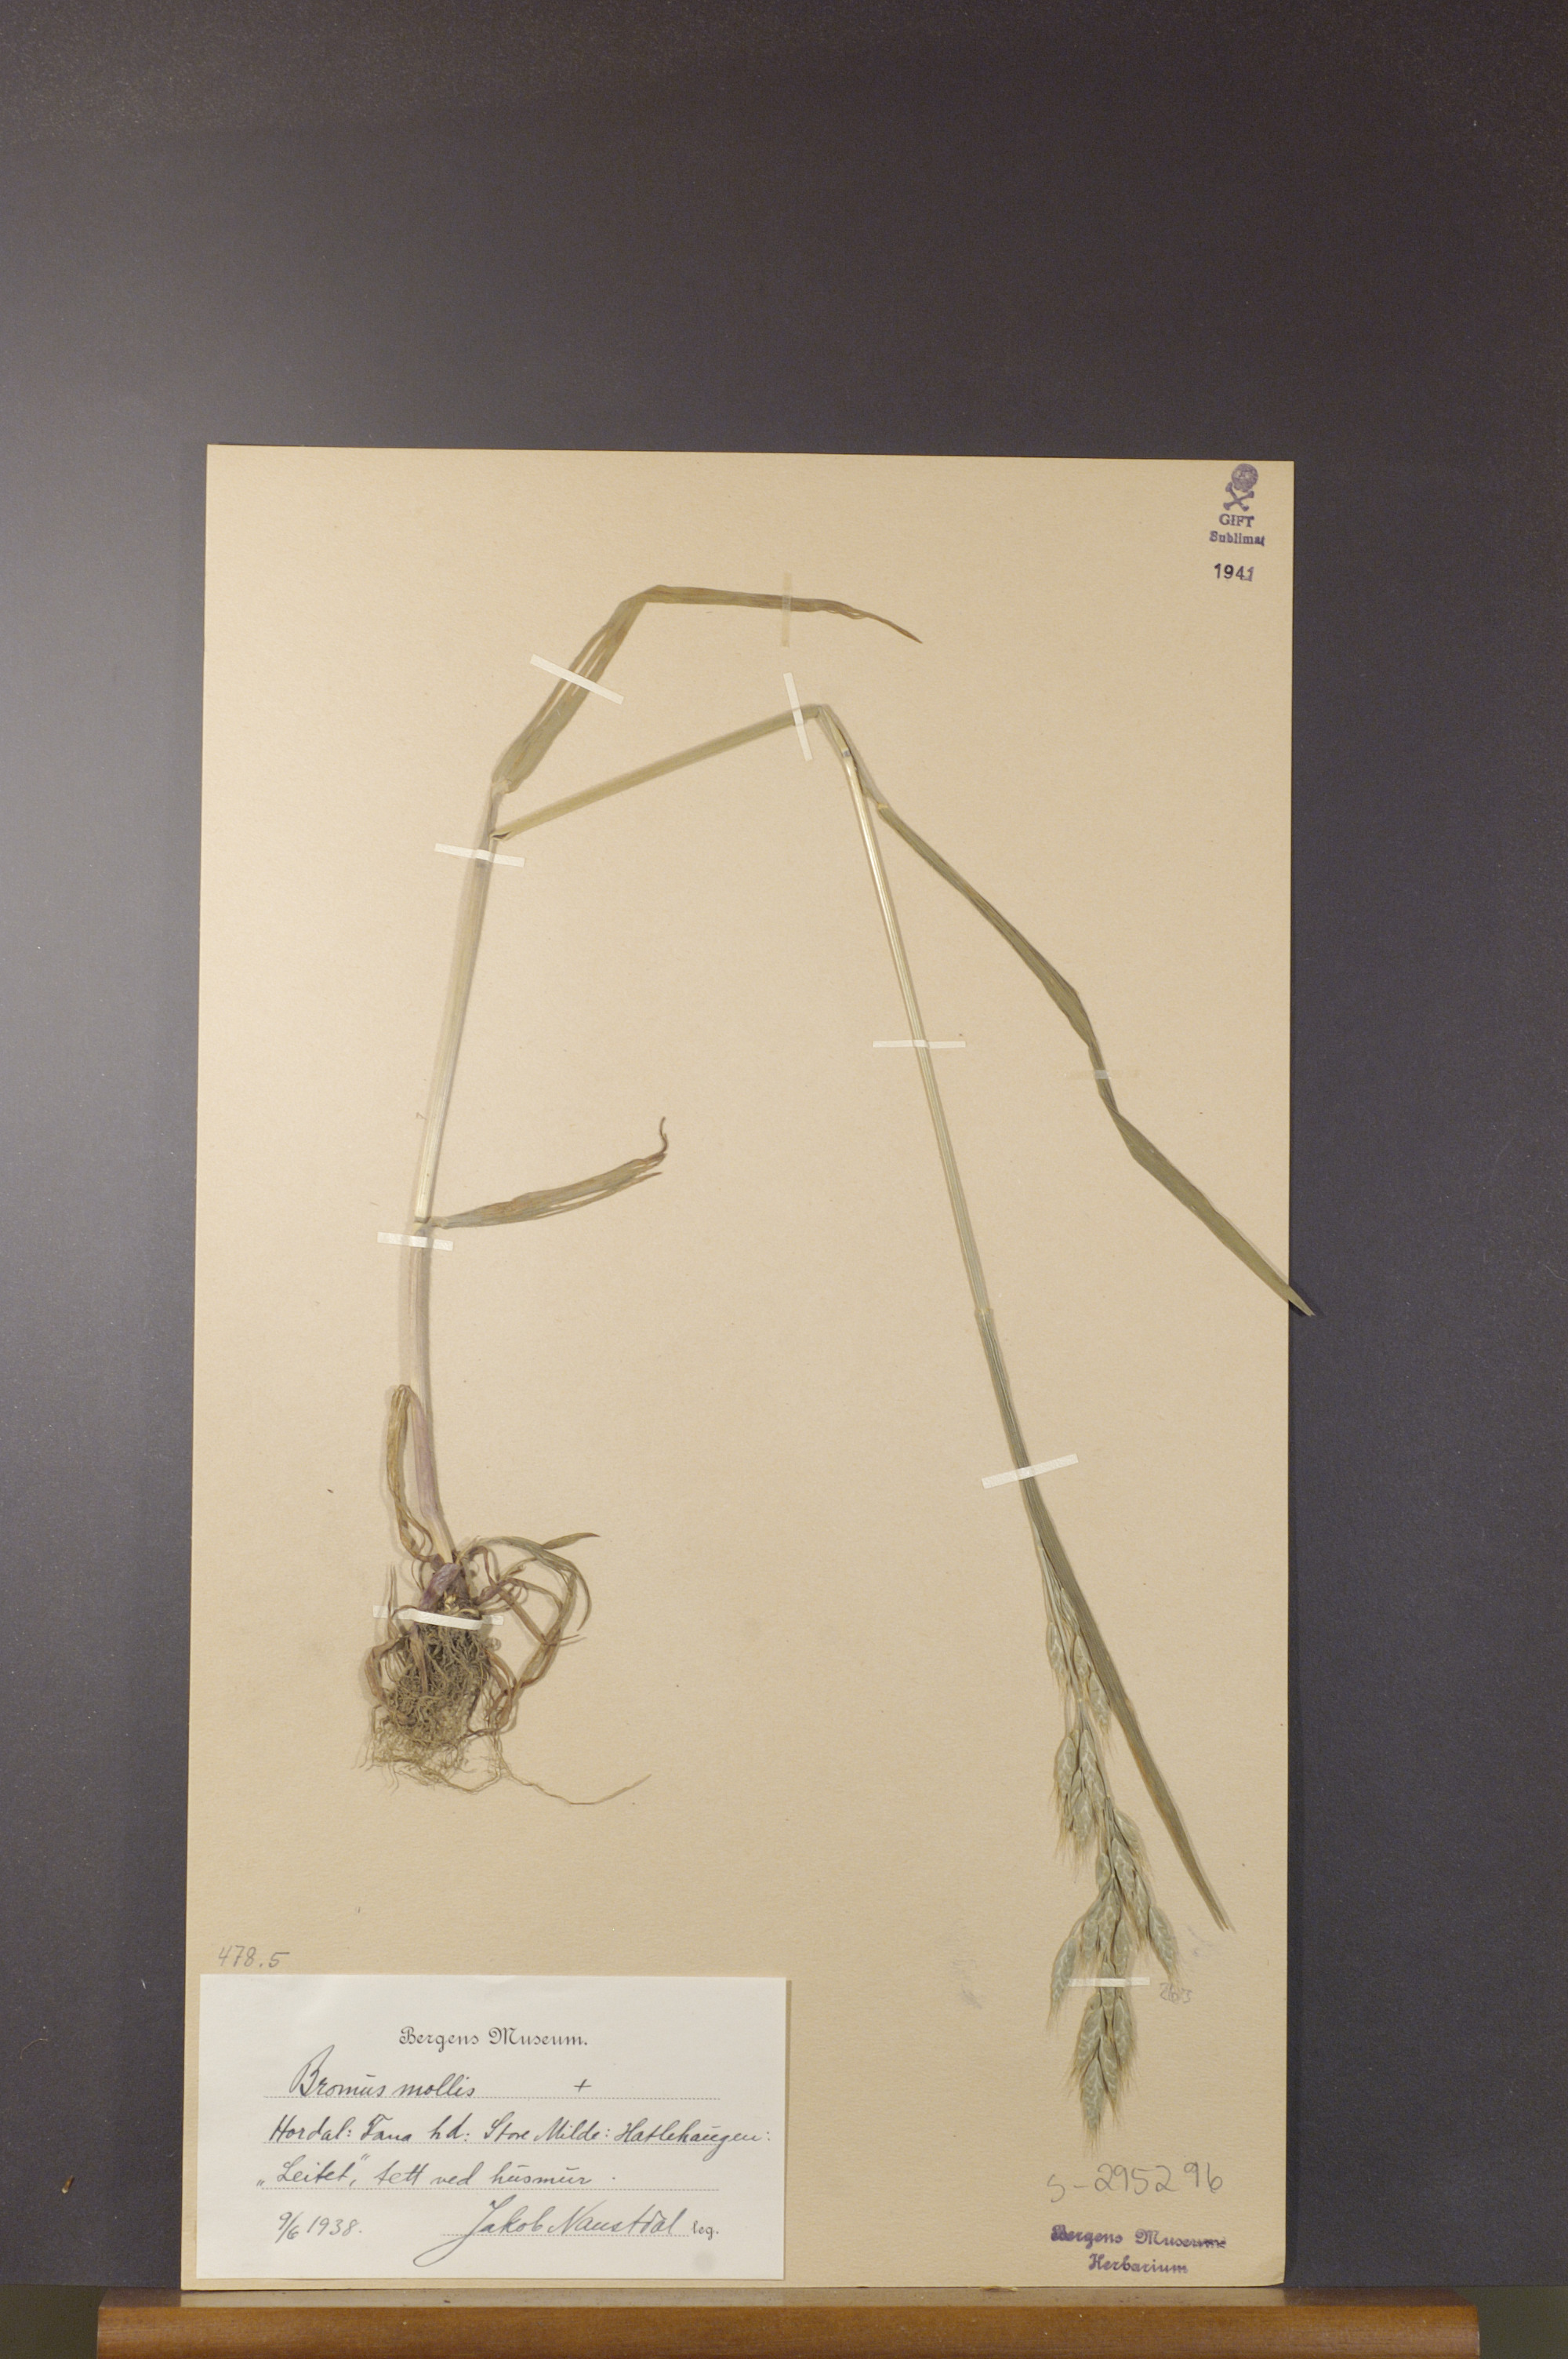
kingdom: Plantae
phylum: Tracheophyta
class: Liliopsida
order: Poales
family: Poaceae
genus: Bromus
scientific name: Bromus hordeaceus
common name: Soft brome
